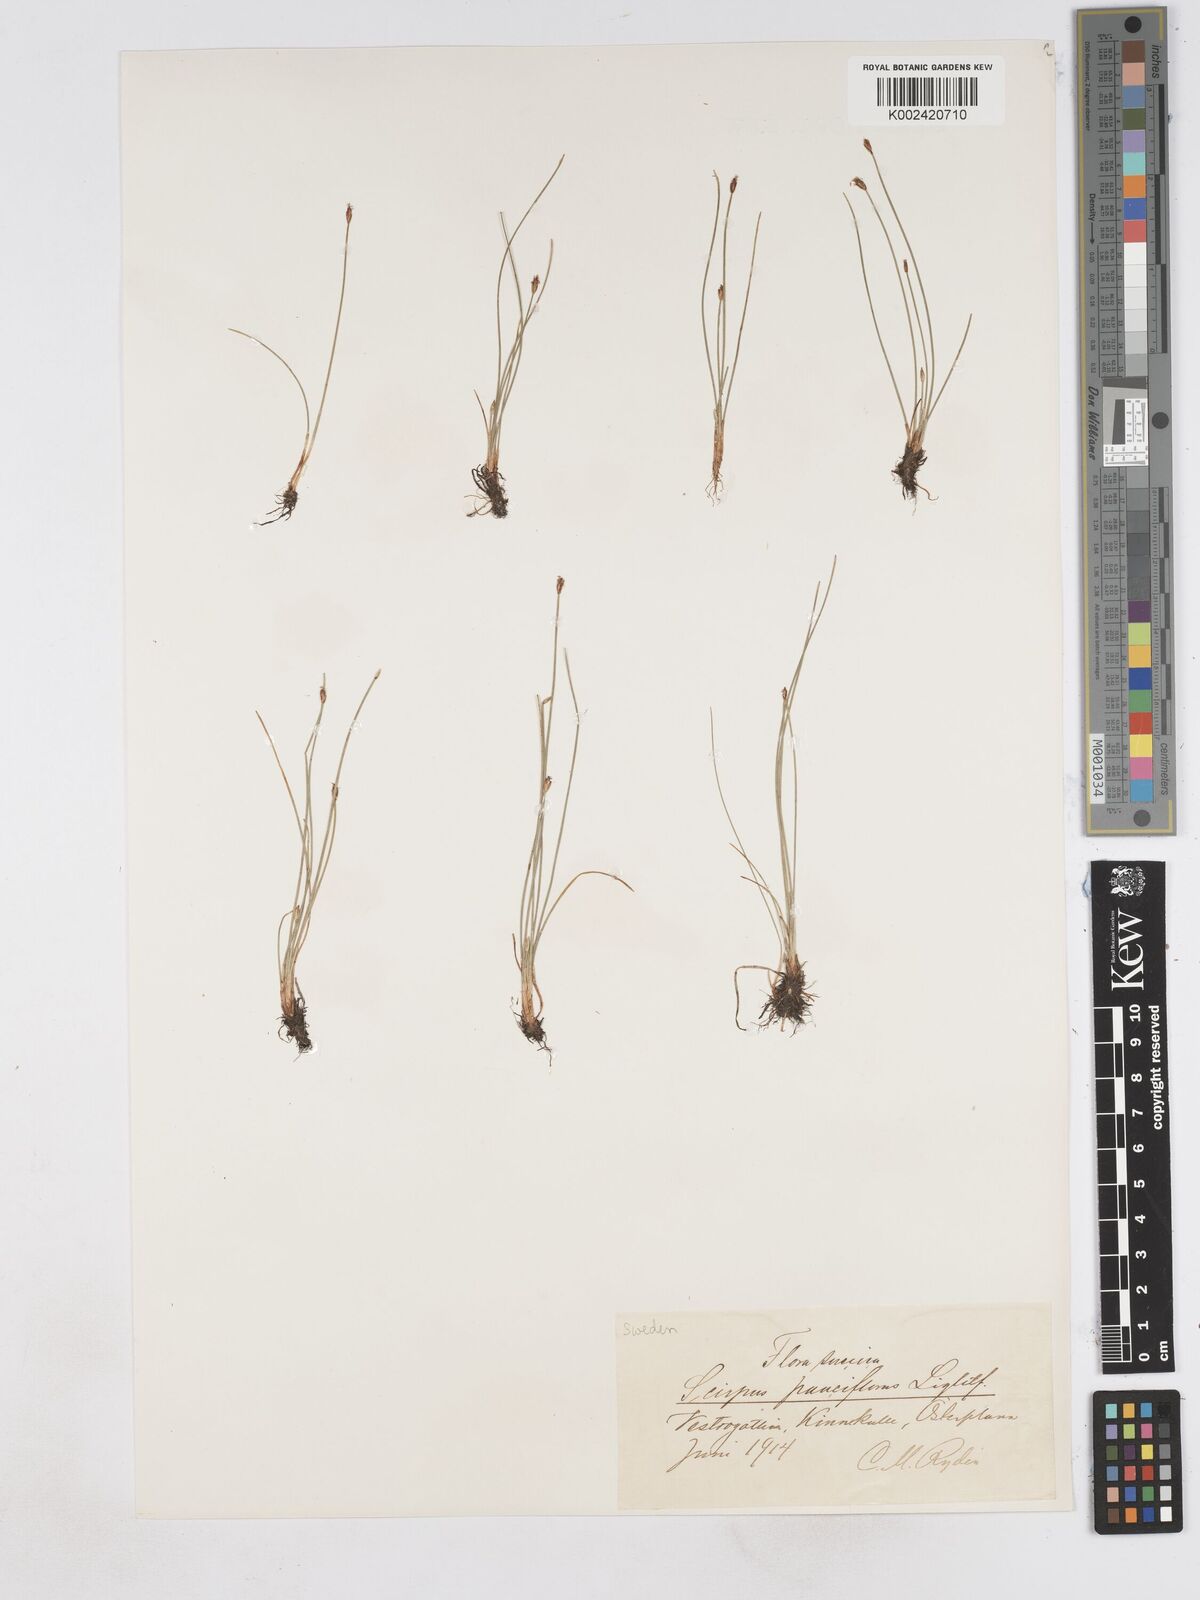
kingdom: Plantae
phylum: Tracheophyta
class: Liliopsida
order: Poales
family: Cyperaceae
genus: Eleocharis
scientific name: Eleocharis quinqueflora
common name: Few-flowered spike-rush
